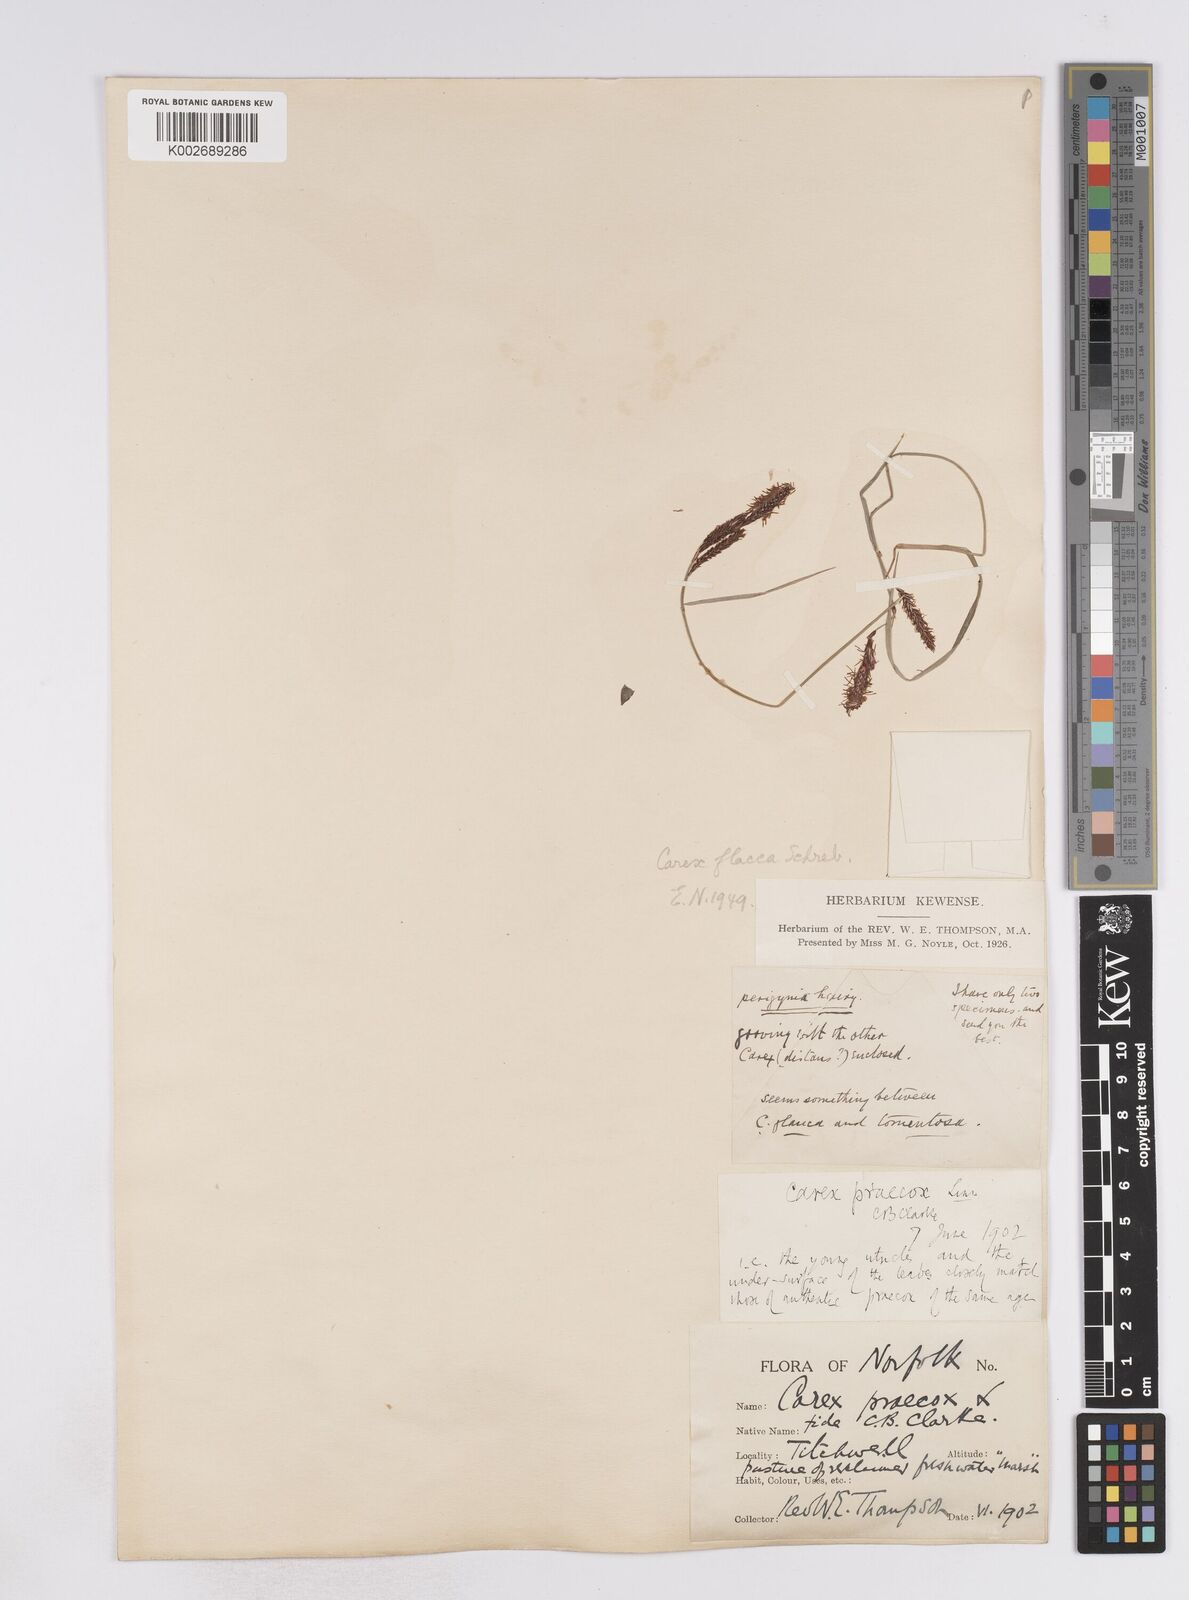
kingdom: Plantae
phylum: Tracheophyta
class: Liliopsida
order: Poales
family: Cyperaceae
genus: Carex
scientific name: Carex flacca
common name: Glaucous sedge
